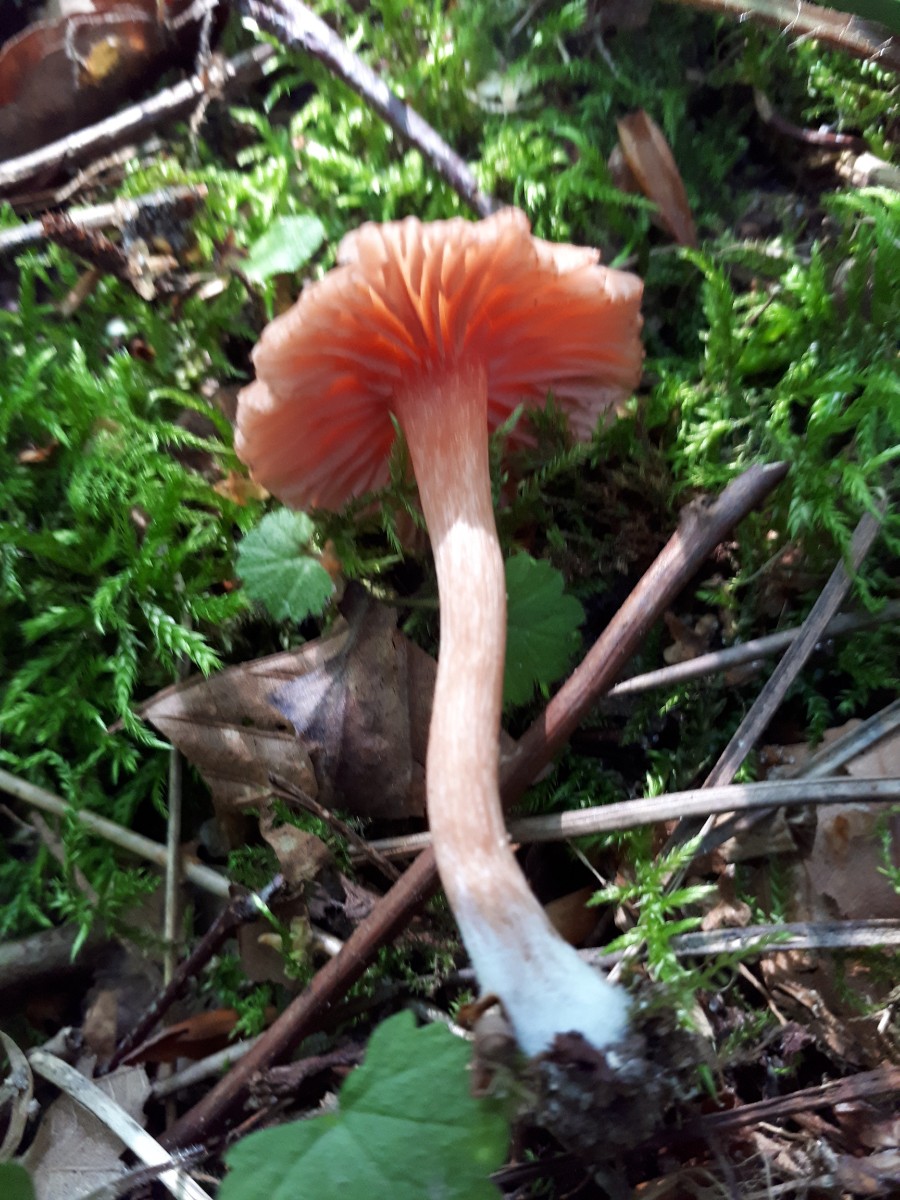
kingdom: Fungi
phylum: Basidiomycota
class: Agaricomycetes
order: Agaricales
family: Hydnangiaceae
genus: Laccaria
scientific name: Laccaria laccata
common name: rød ametysthat
